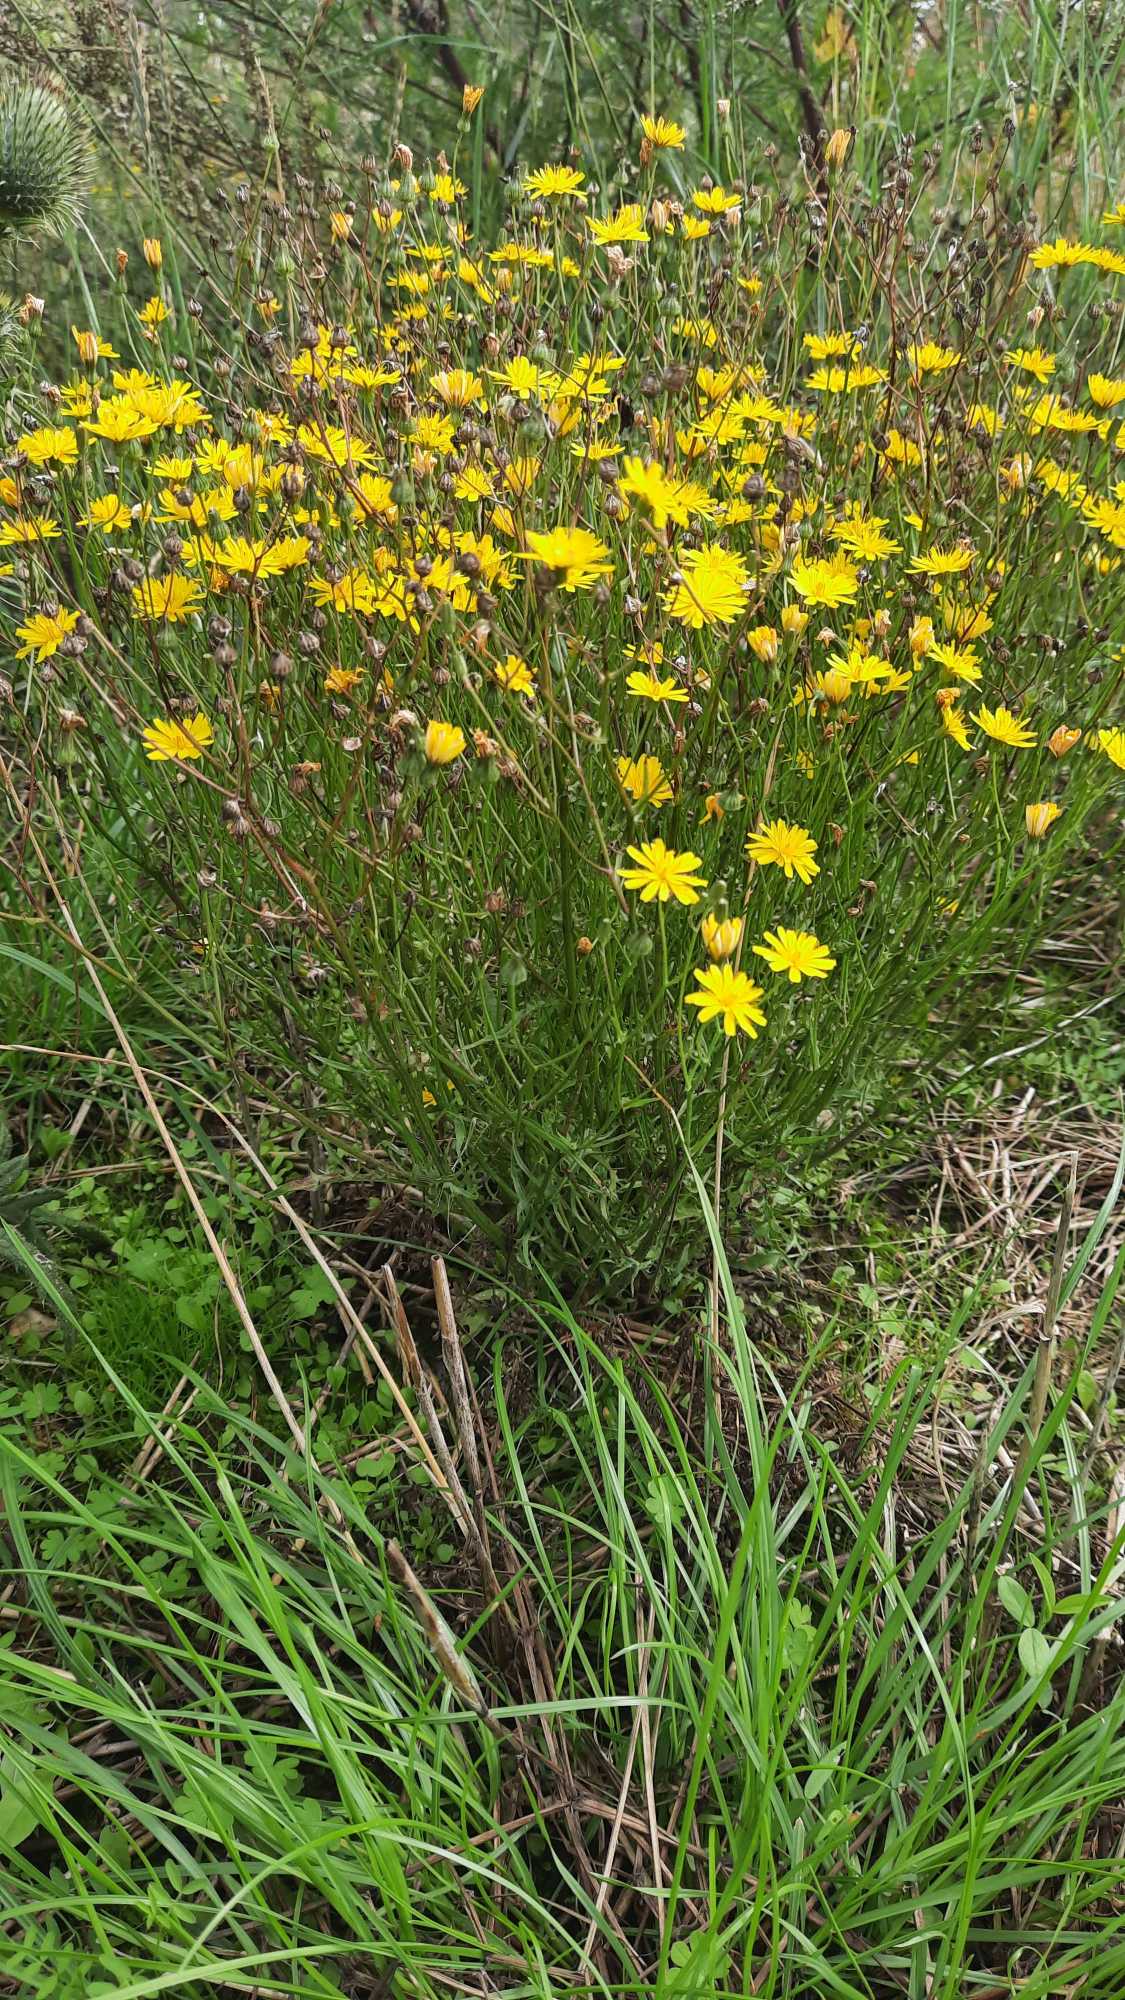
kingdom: Plantae
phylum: Tracheophyta
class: Magnoliopsida
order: Asterales
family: Asteraceae
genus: Crepis
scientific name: Crepis capillaris
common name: Grøn høgeskæg
